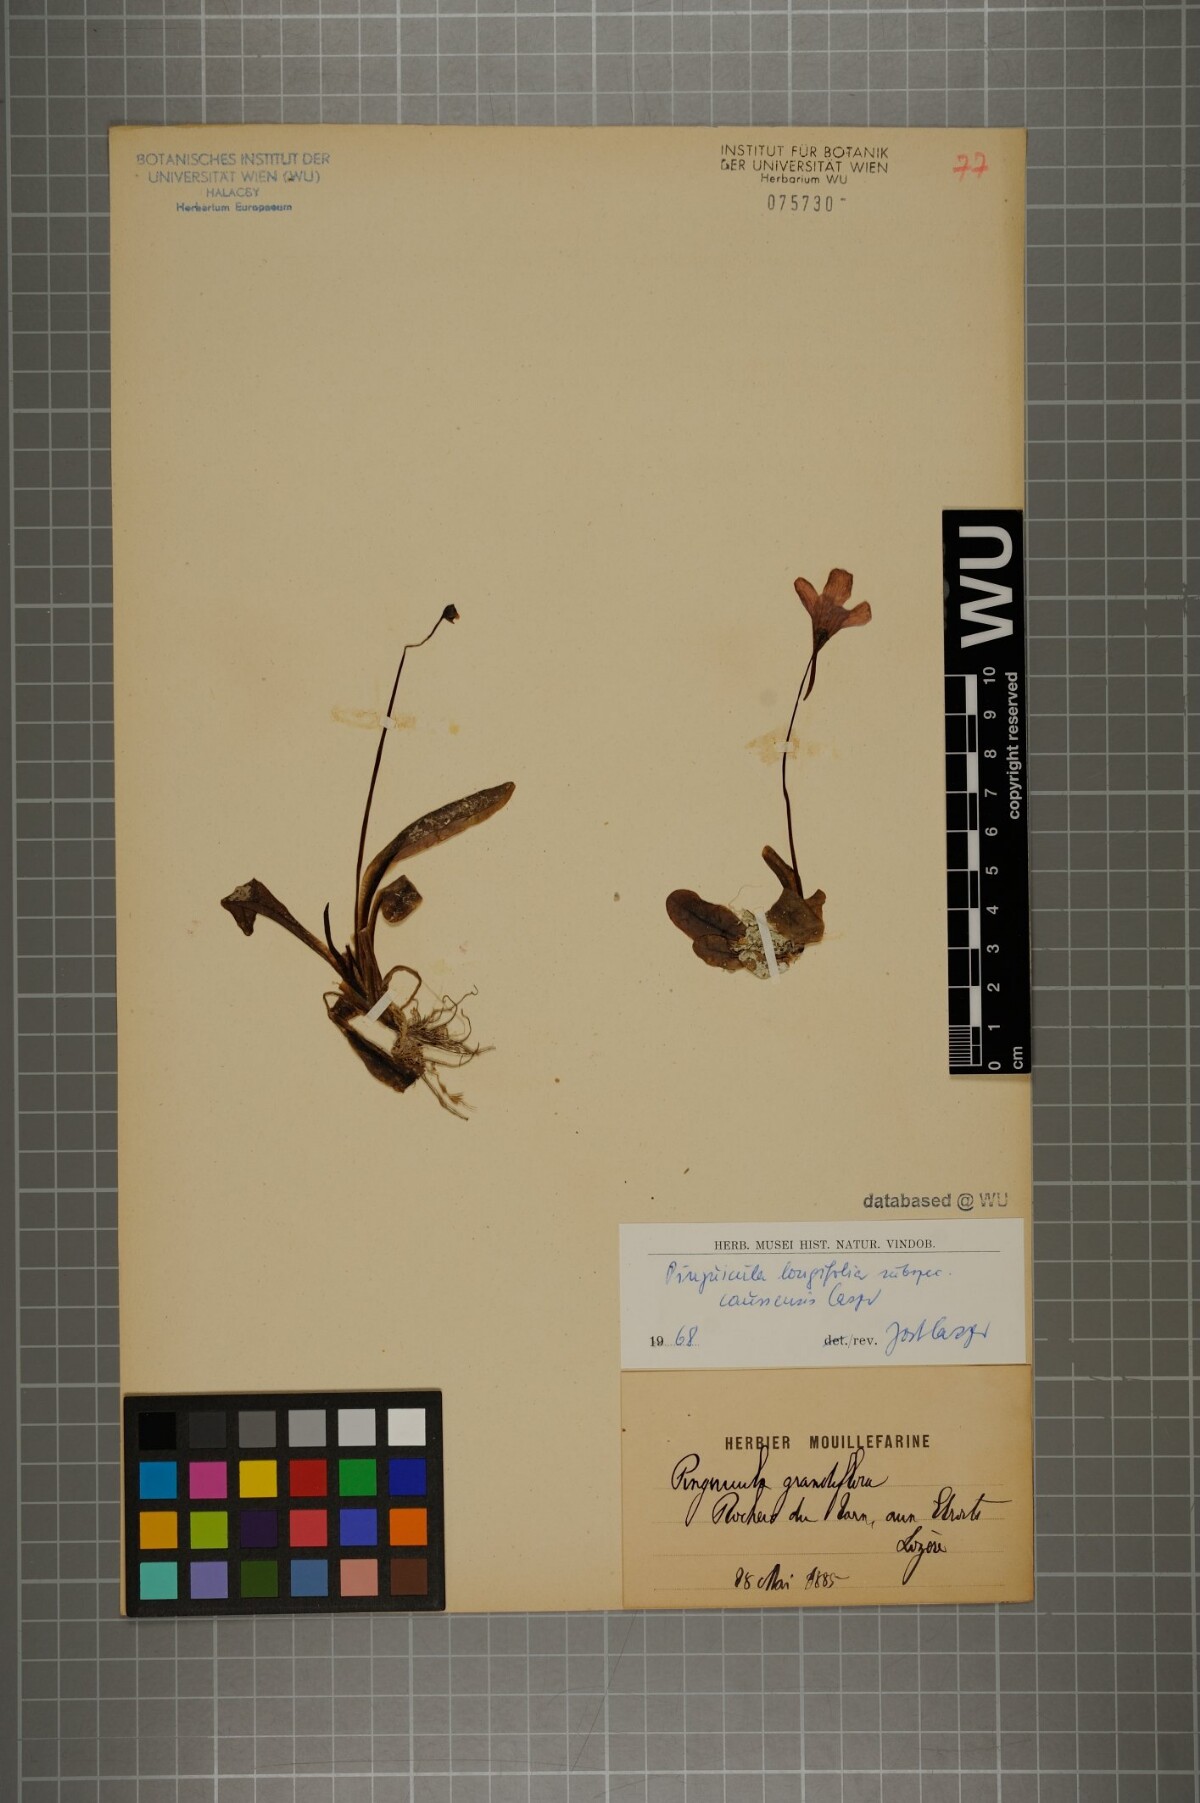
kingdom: Plantae
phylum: Tracheophyta
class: Magnoliopsida
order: Lamiales
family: Lentibulariaceae
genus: Pinguicula
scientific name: Pinguicula caussensis
